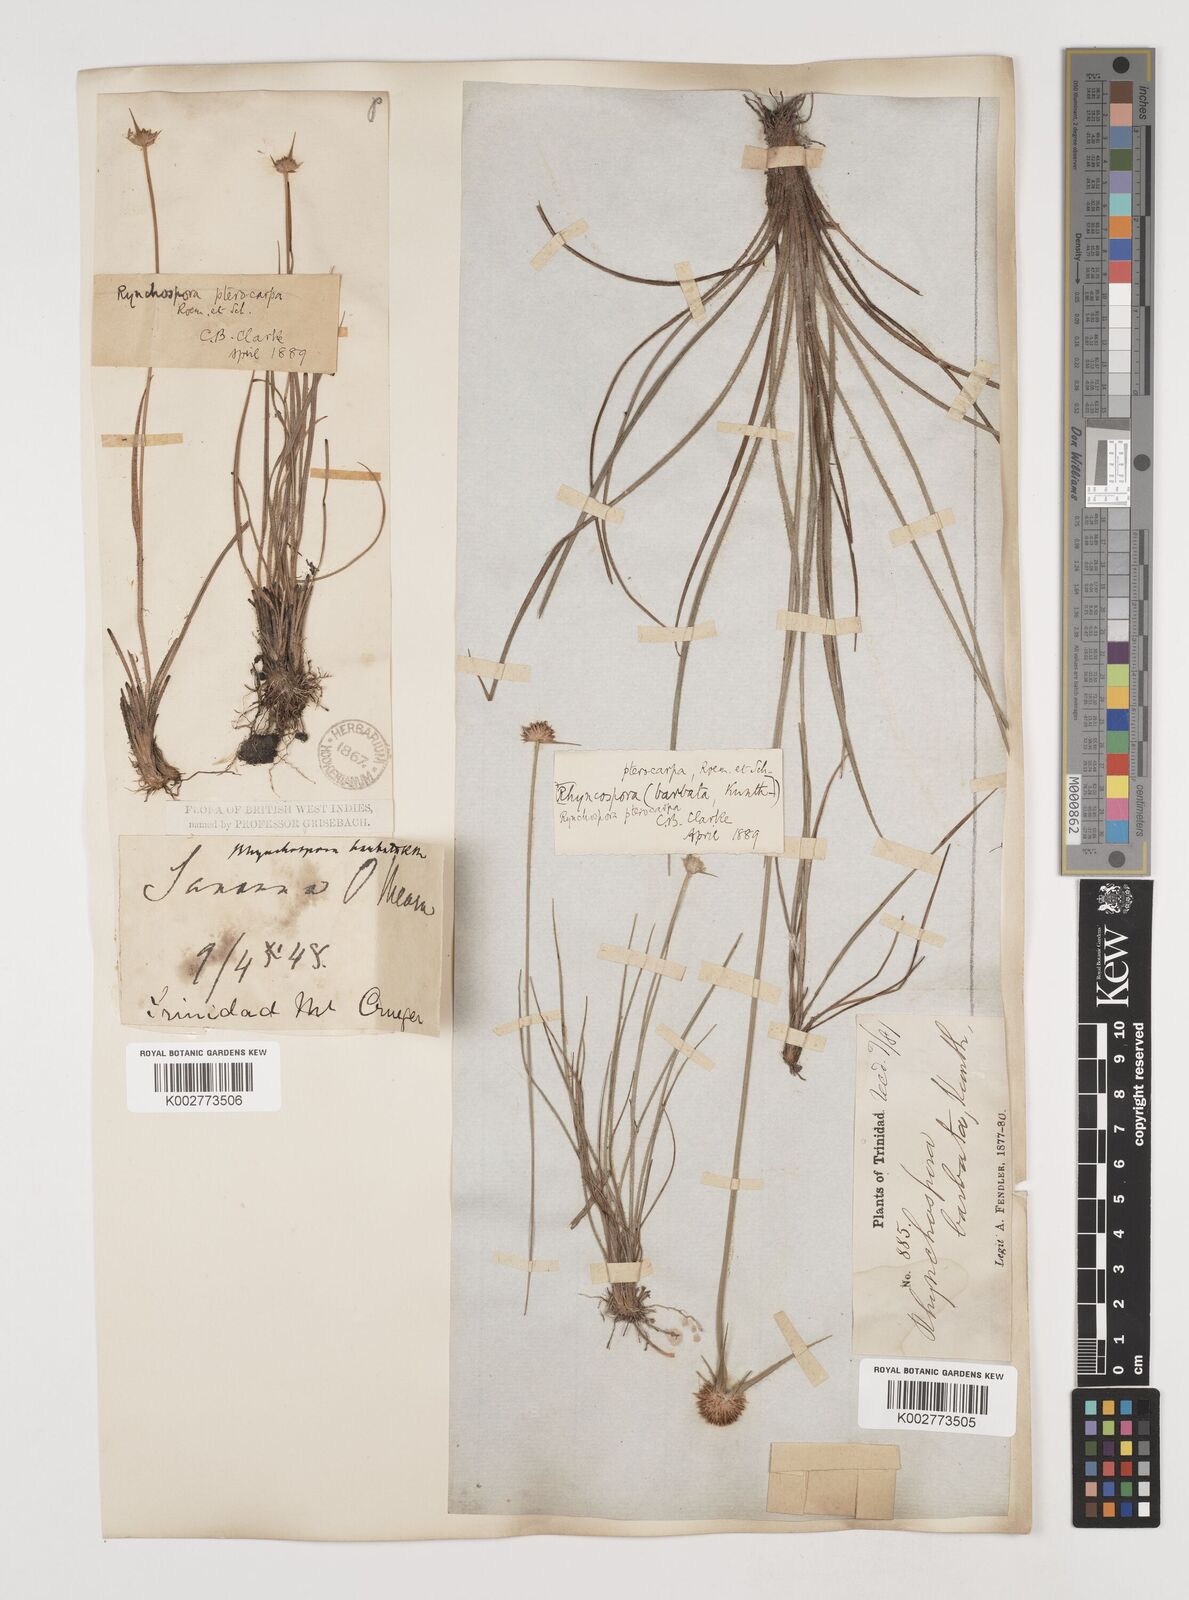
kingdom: Plantae
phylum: Tracheophyta
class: Liliopsida
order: Poales
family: Cyperaceae
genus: Rhynchospora
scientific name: Rhynchospora barbata
